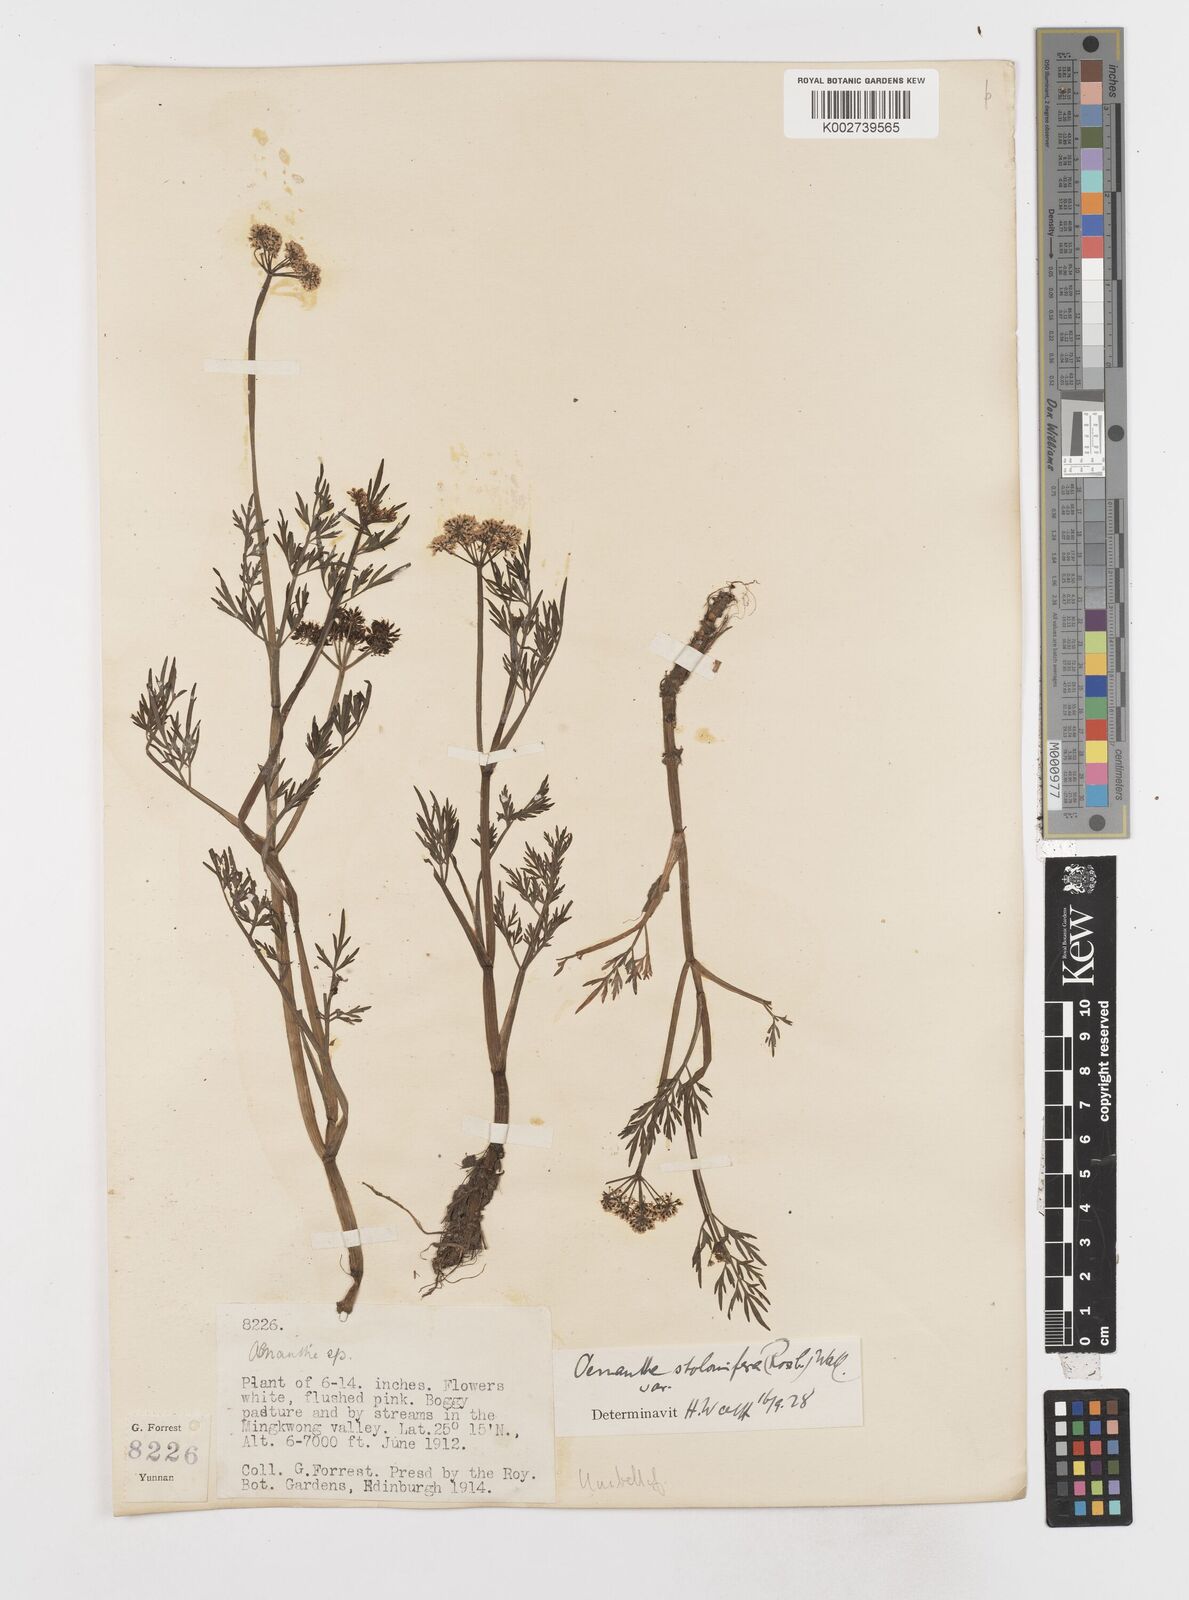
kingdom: Plantae
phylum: Tracheophyta
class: Magnoliopsida
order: Apiales
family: Apiaceae
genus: Oenanthe
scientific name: Oenanthe javanica
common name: Java water-dropwort
